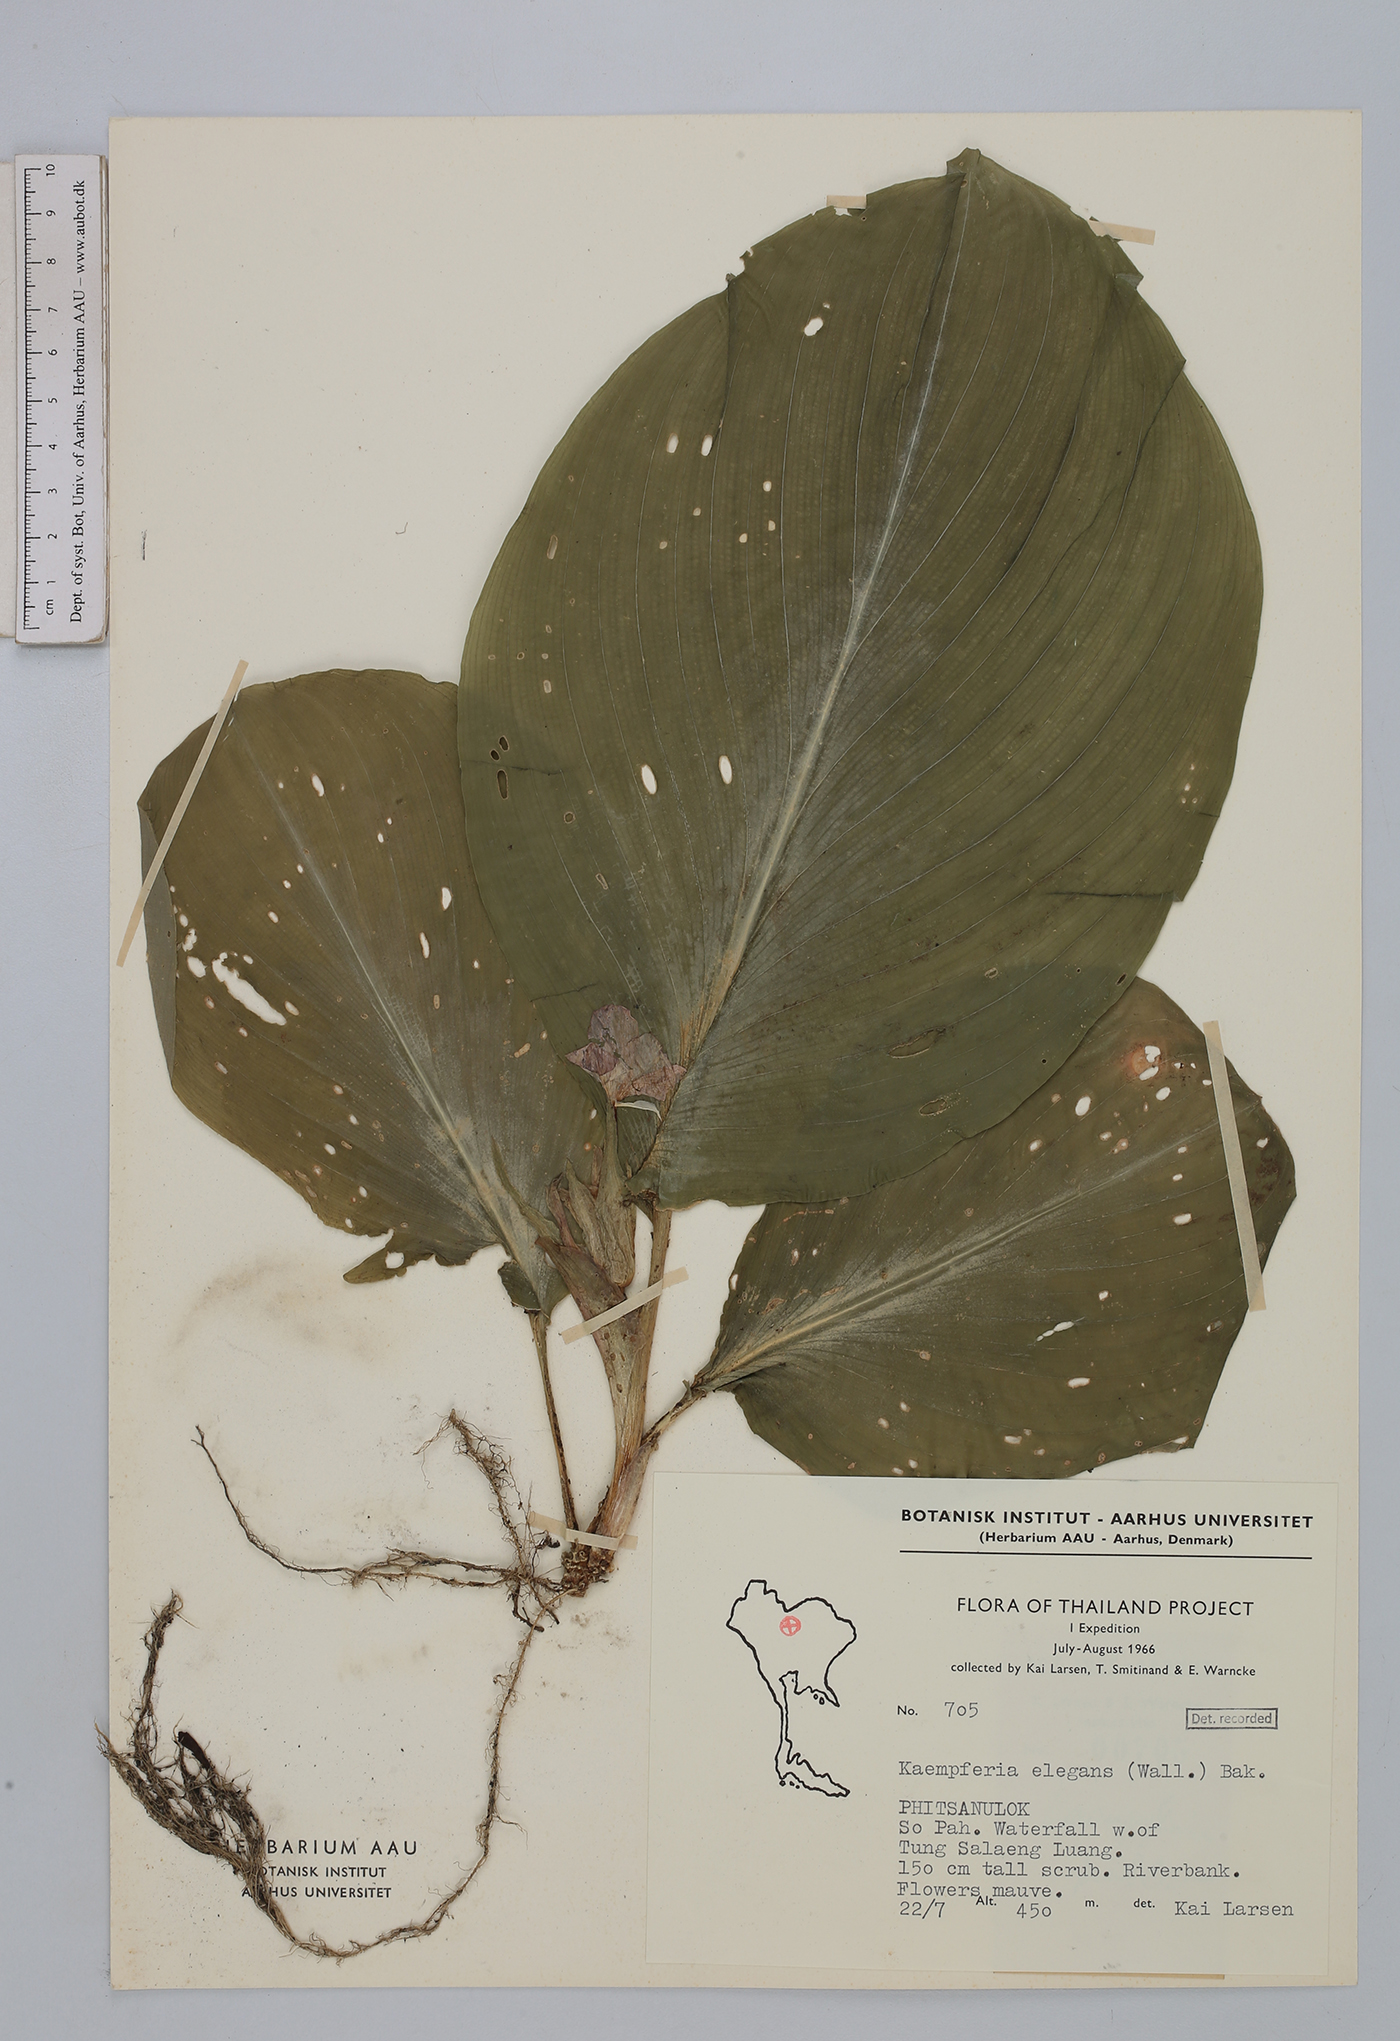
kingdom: Plantae
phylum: Tracheophyta
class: Liliopsida
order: Zingiberales
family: Zingiberaceae
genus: Kaempferia
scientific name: Kaempferia elegans
